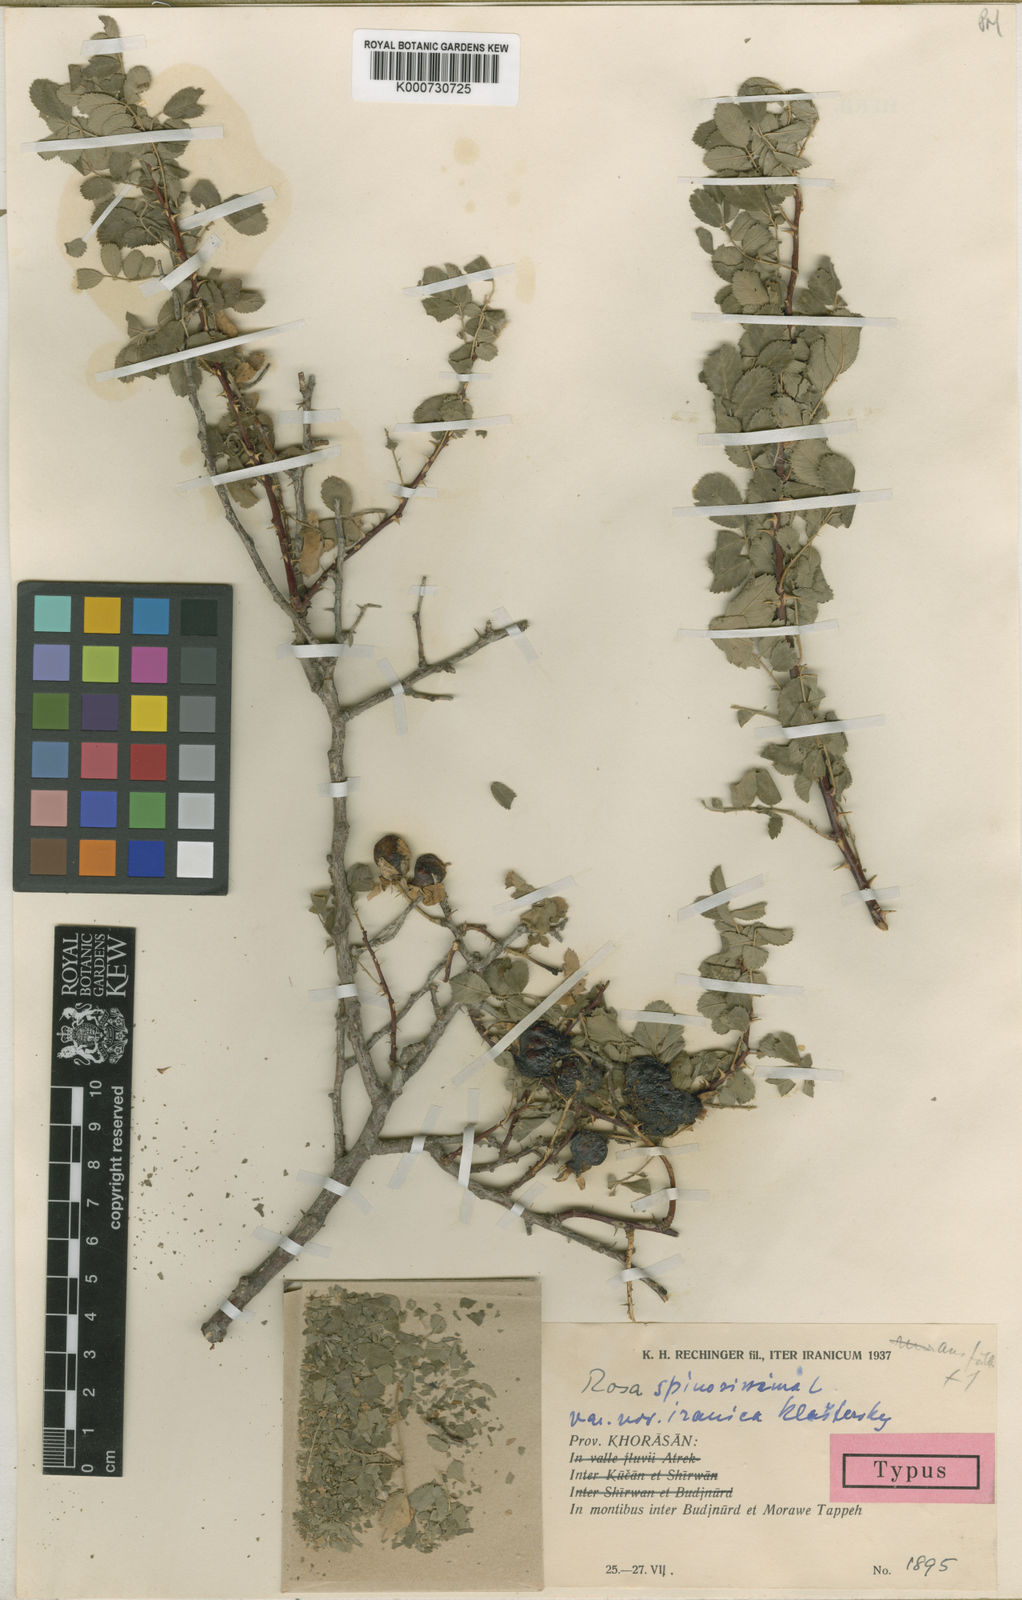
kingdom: Plantae
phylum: Tracheophyta
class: Magnoliopsida
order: Rosales
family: Rosaceae
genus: Rosa
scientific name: Rosa spinosissima
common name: Burnet rose
